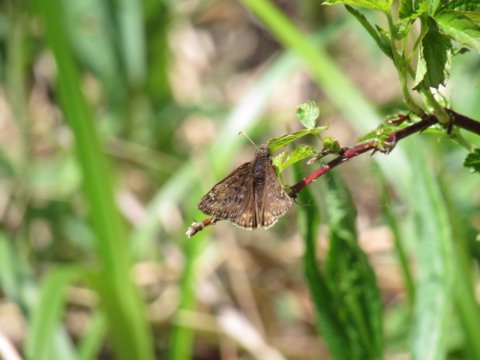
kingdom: Animalia
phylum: Arthropoda
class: Insecta
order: Lepidoptera
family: Hesperiidae
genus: Erynnis
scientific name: Erynnis
